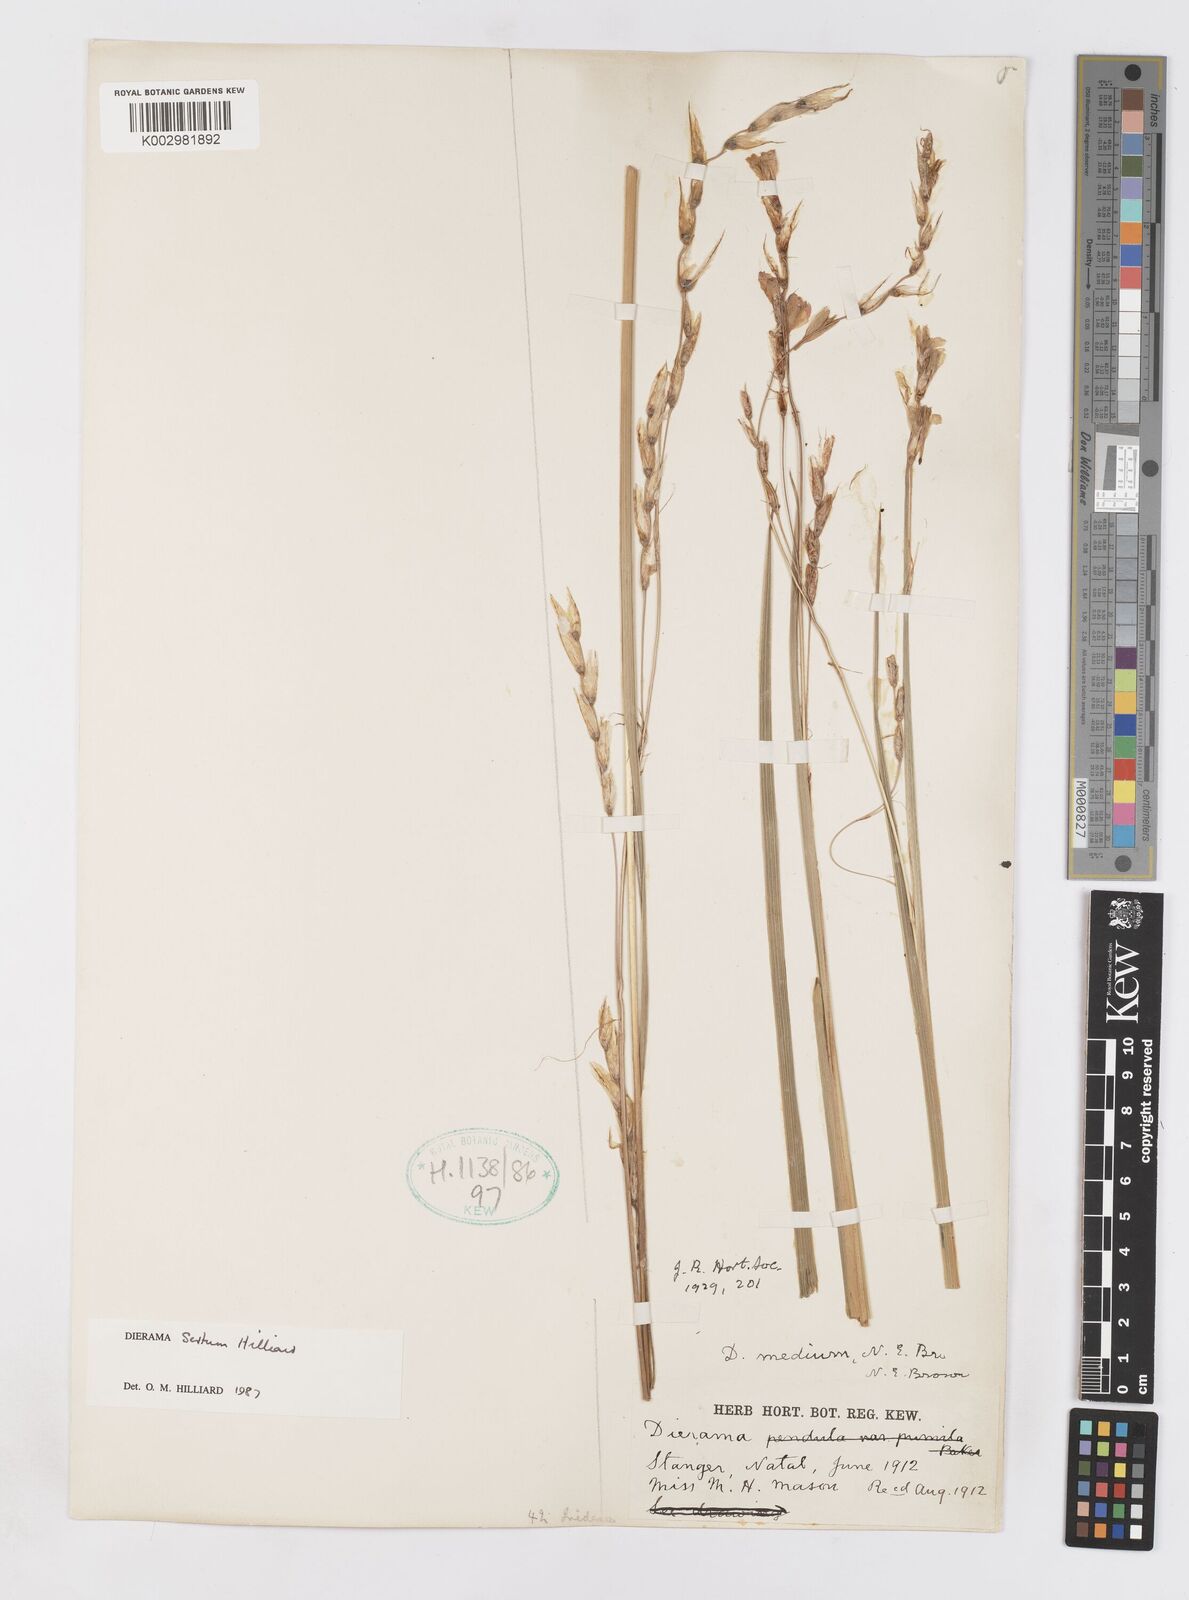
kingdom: Plantae
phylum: Tracheophyta
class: Liliopsida
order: Asparagales
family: Iridaceae
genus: Dierama
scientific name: Dierama sertum
